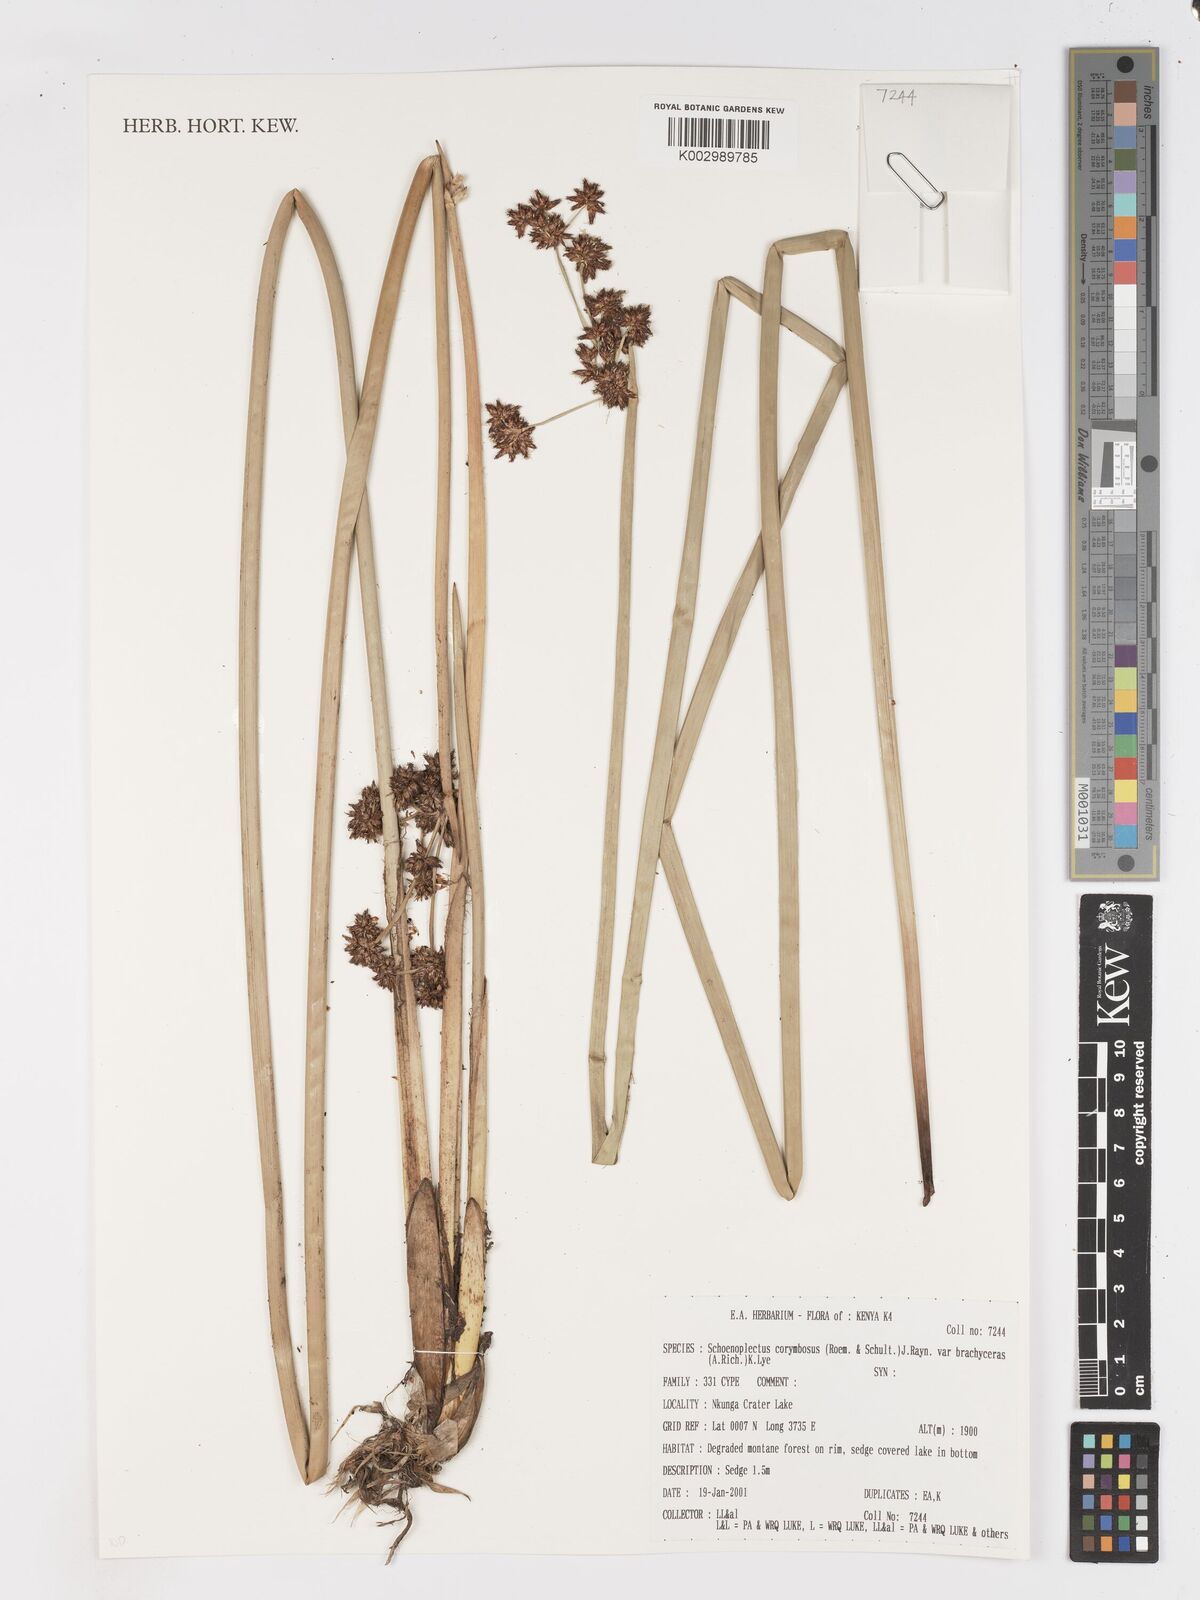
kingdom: Plantae
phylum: Tracheophyta
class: Liliopsida
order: Poales
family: Cyperaceae
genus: Schoenoplectiella
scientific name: Schoenoplectiella brachyceras
